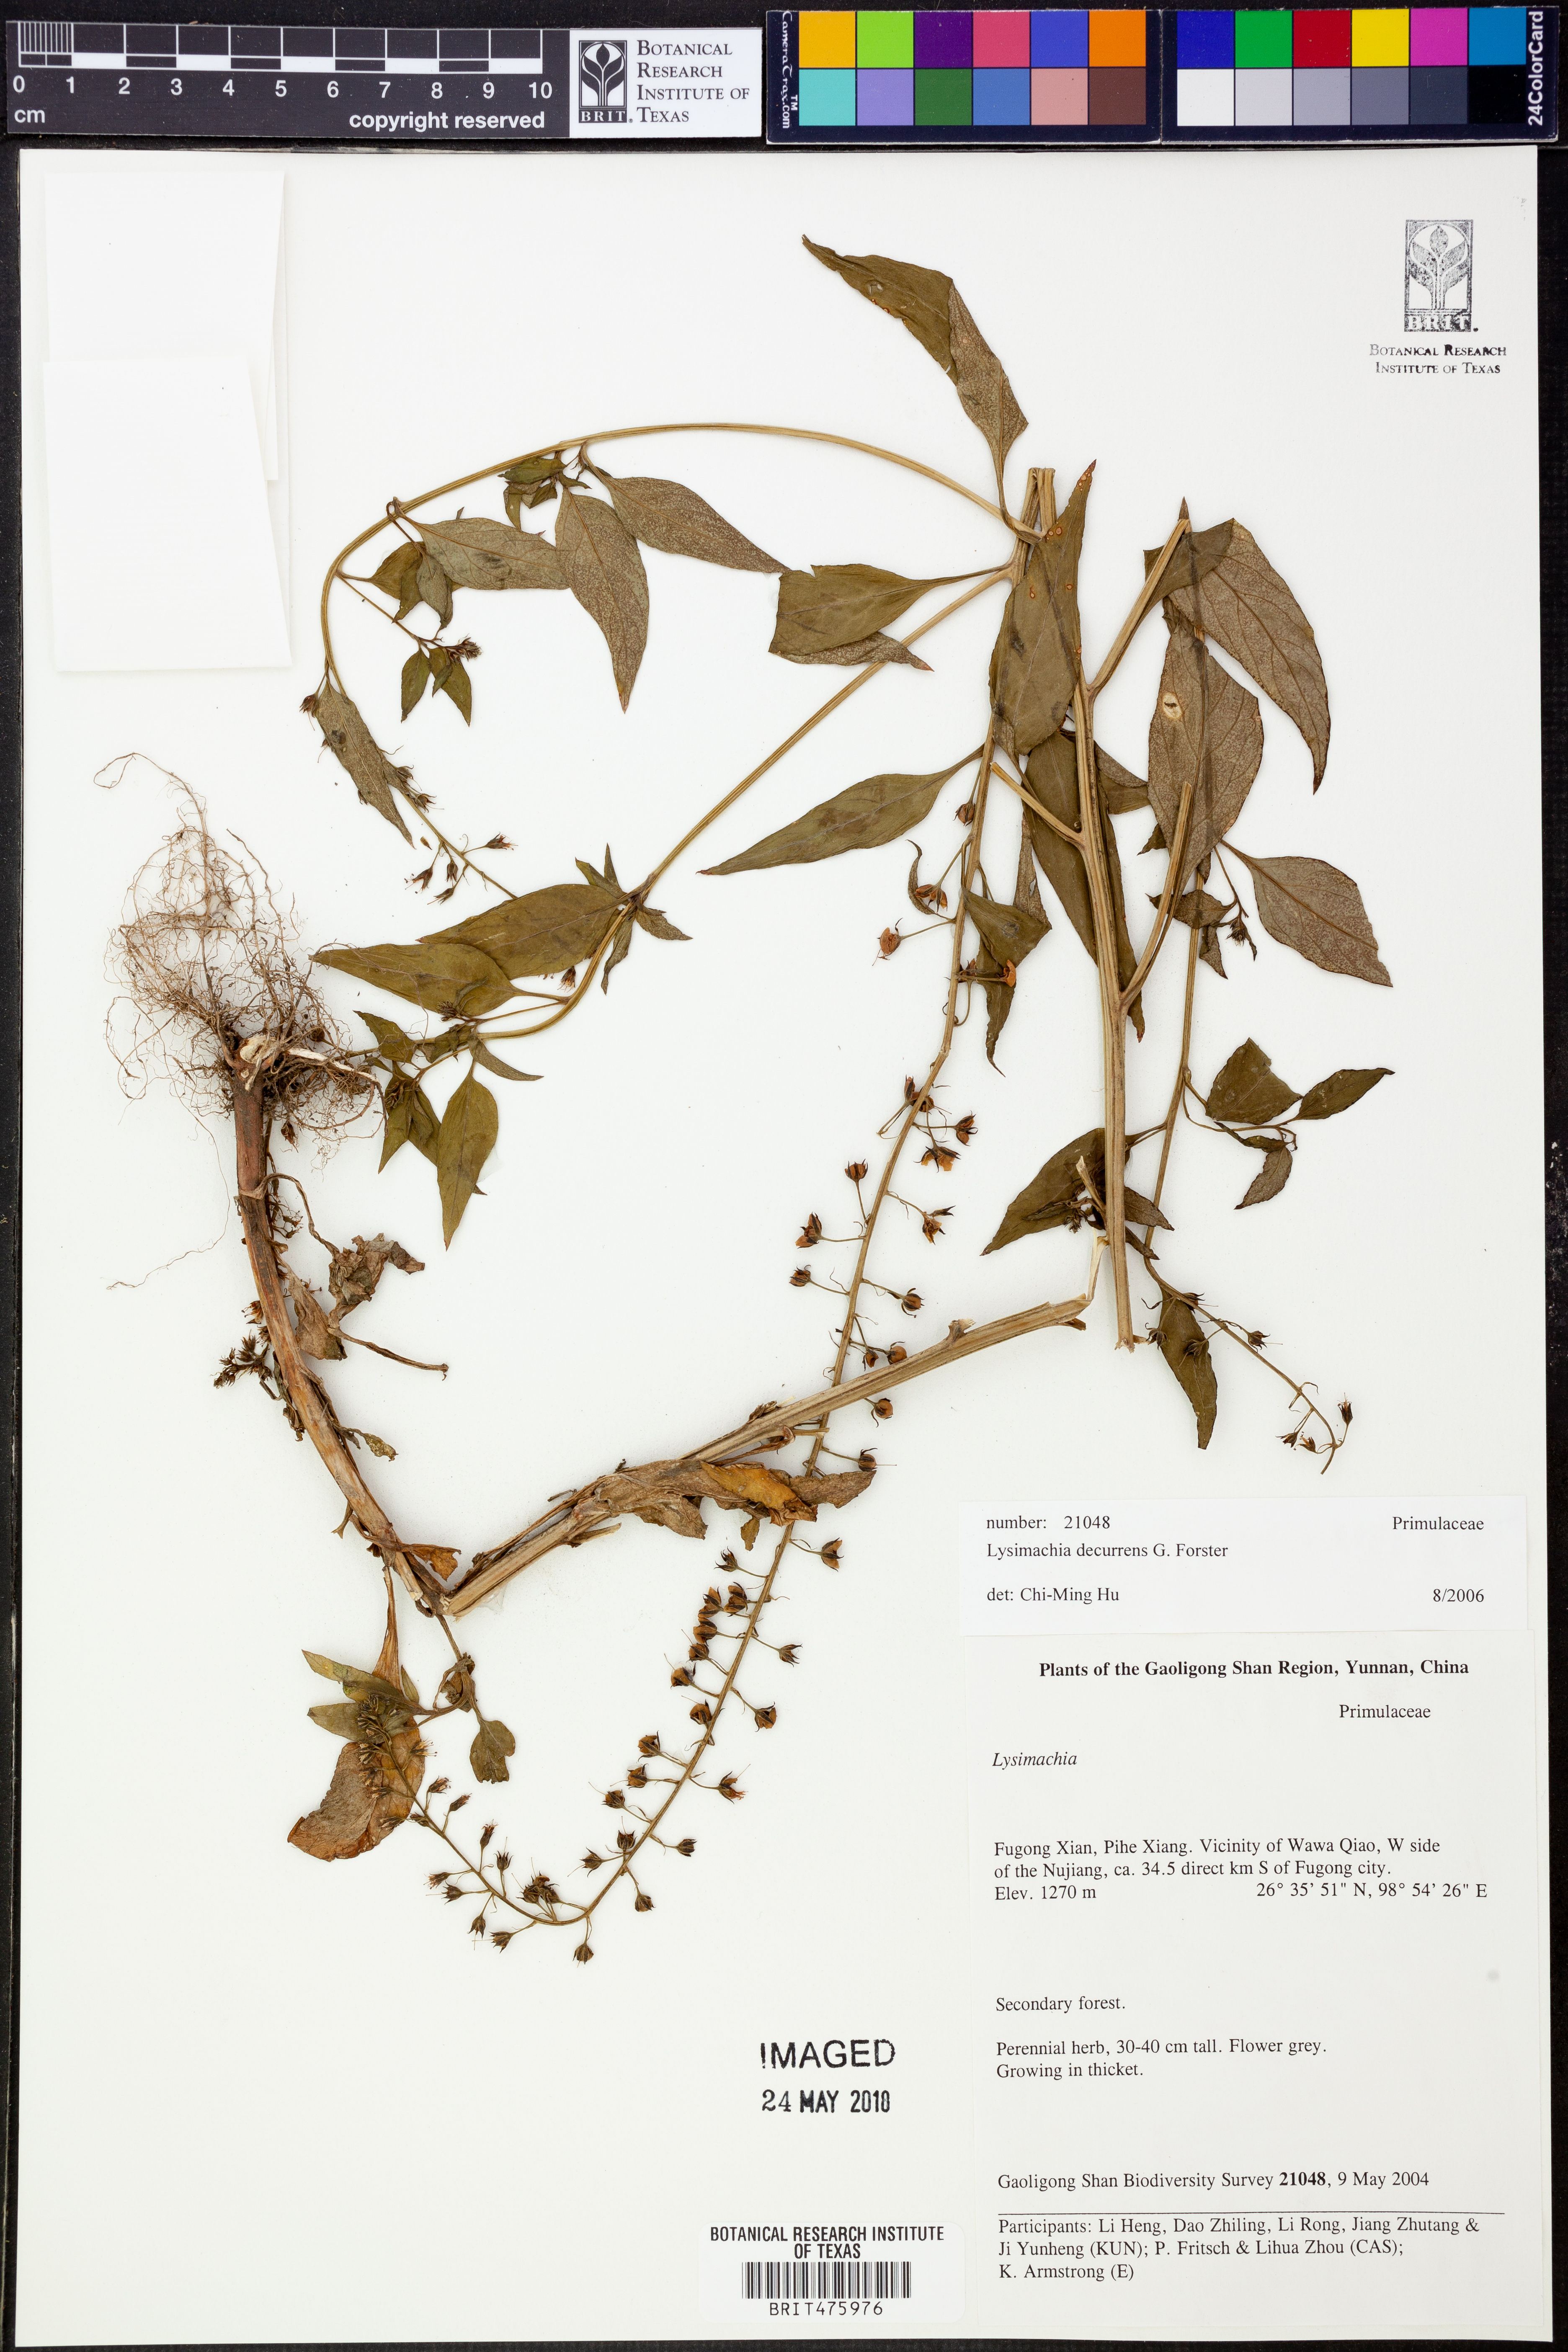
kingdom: Plantae
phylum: Tracheophyta
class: Magnoliopsida
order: Ericales
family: Primulaceae
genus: Lysimachia
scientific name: Lysimachia decurrens
